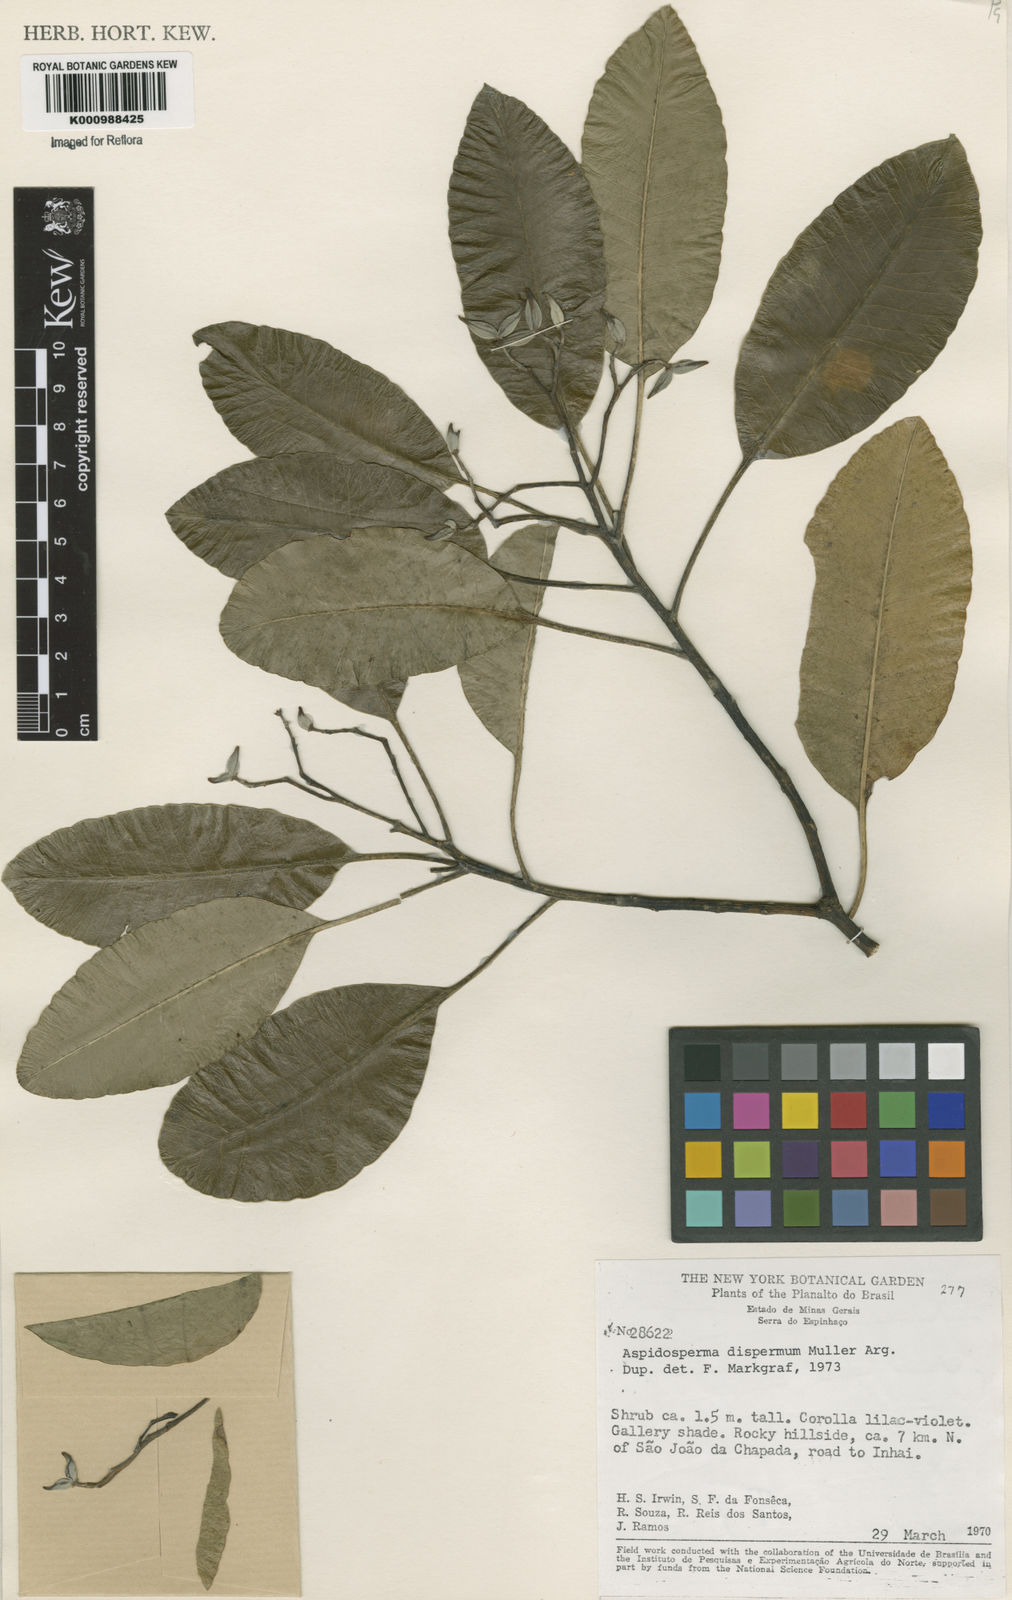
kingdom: Plantae
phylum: Tracheophyta
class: Magnoliopsida
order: Gentianales
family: Apocynaceae
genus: Aspidosperma
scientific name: Aspidosperma
